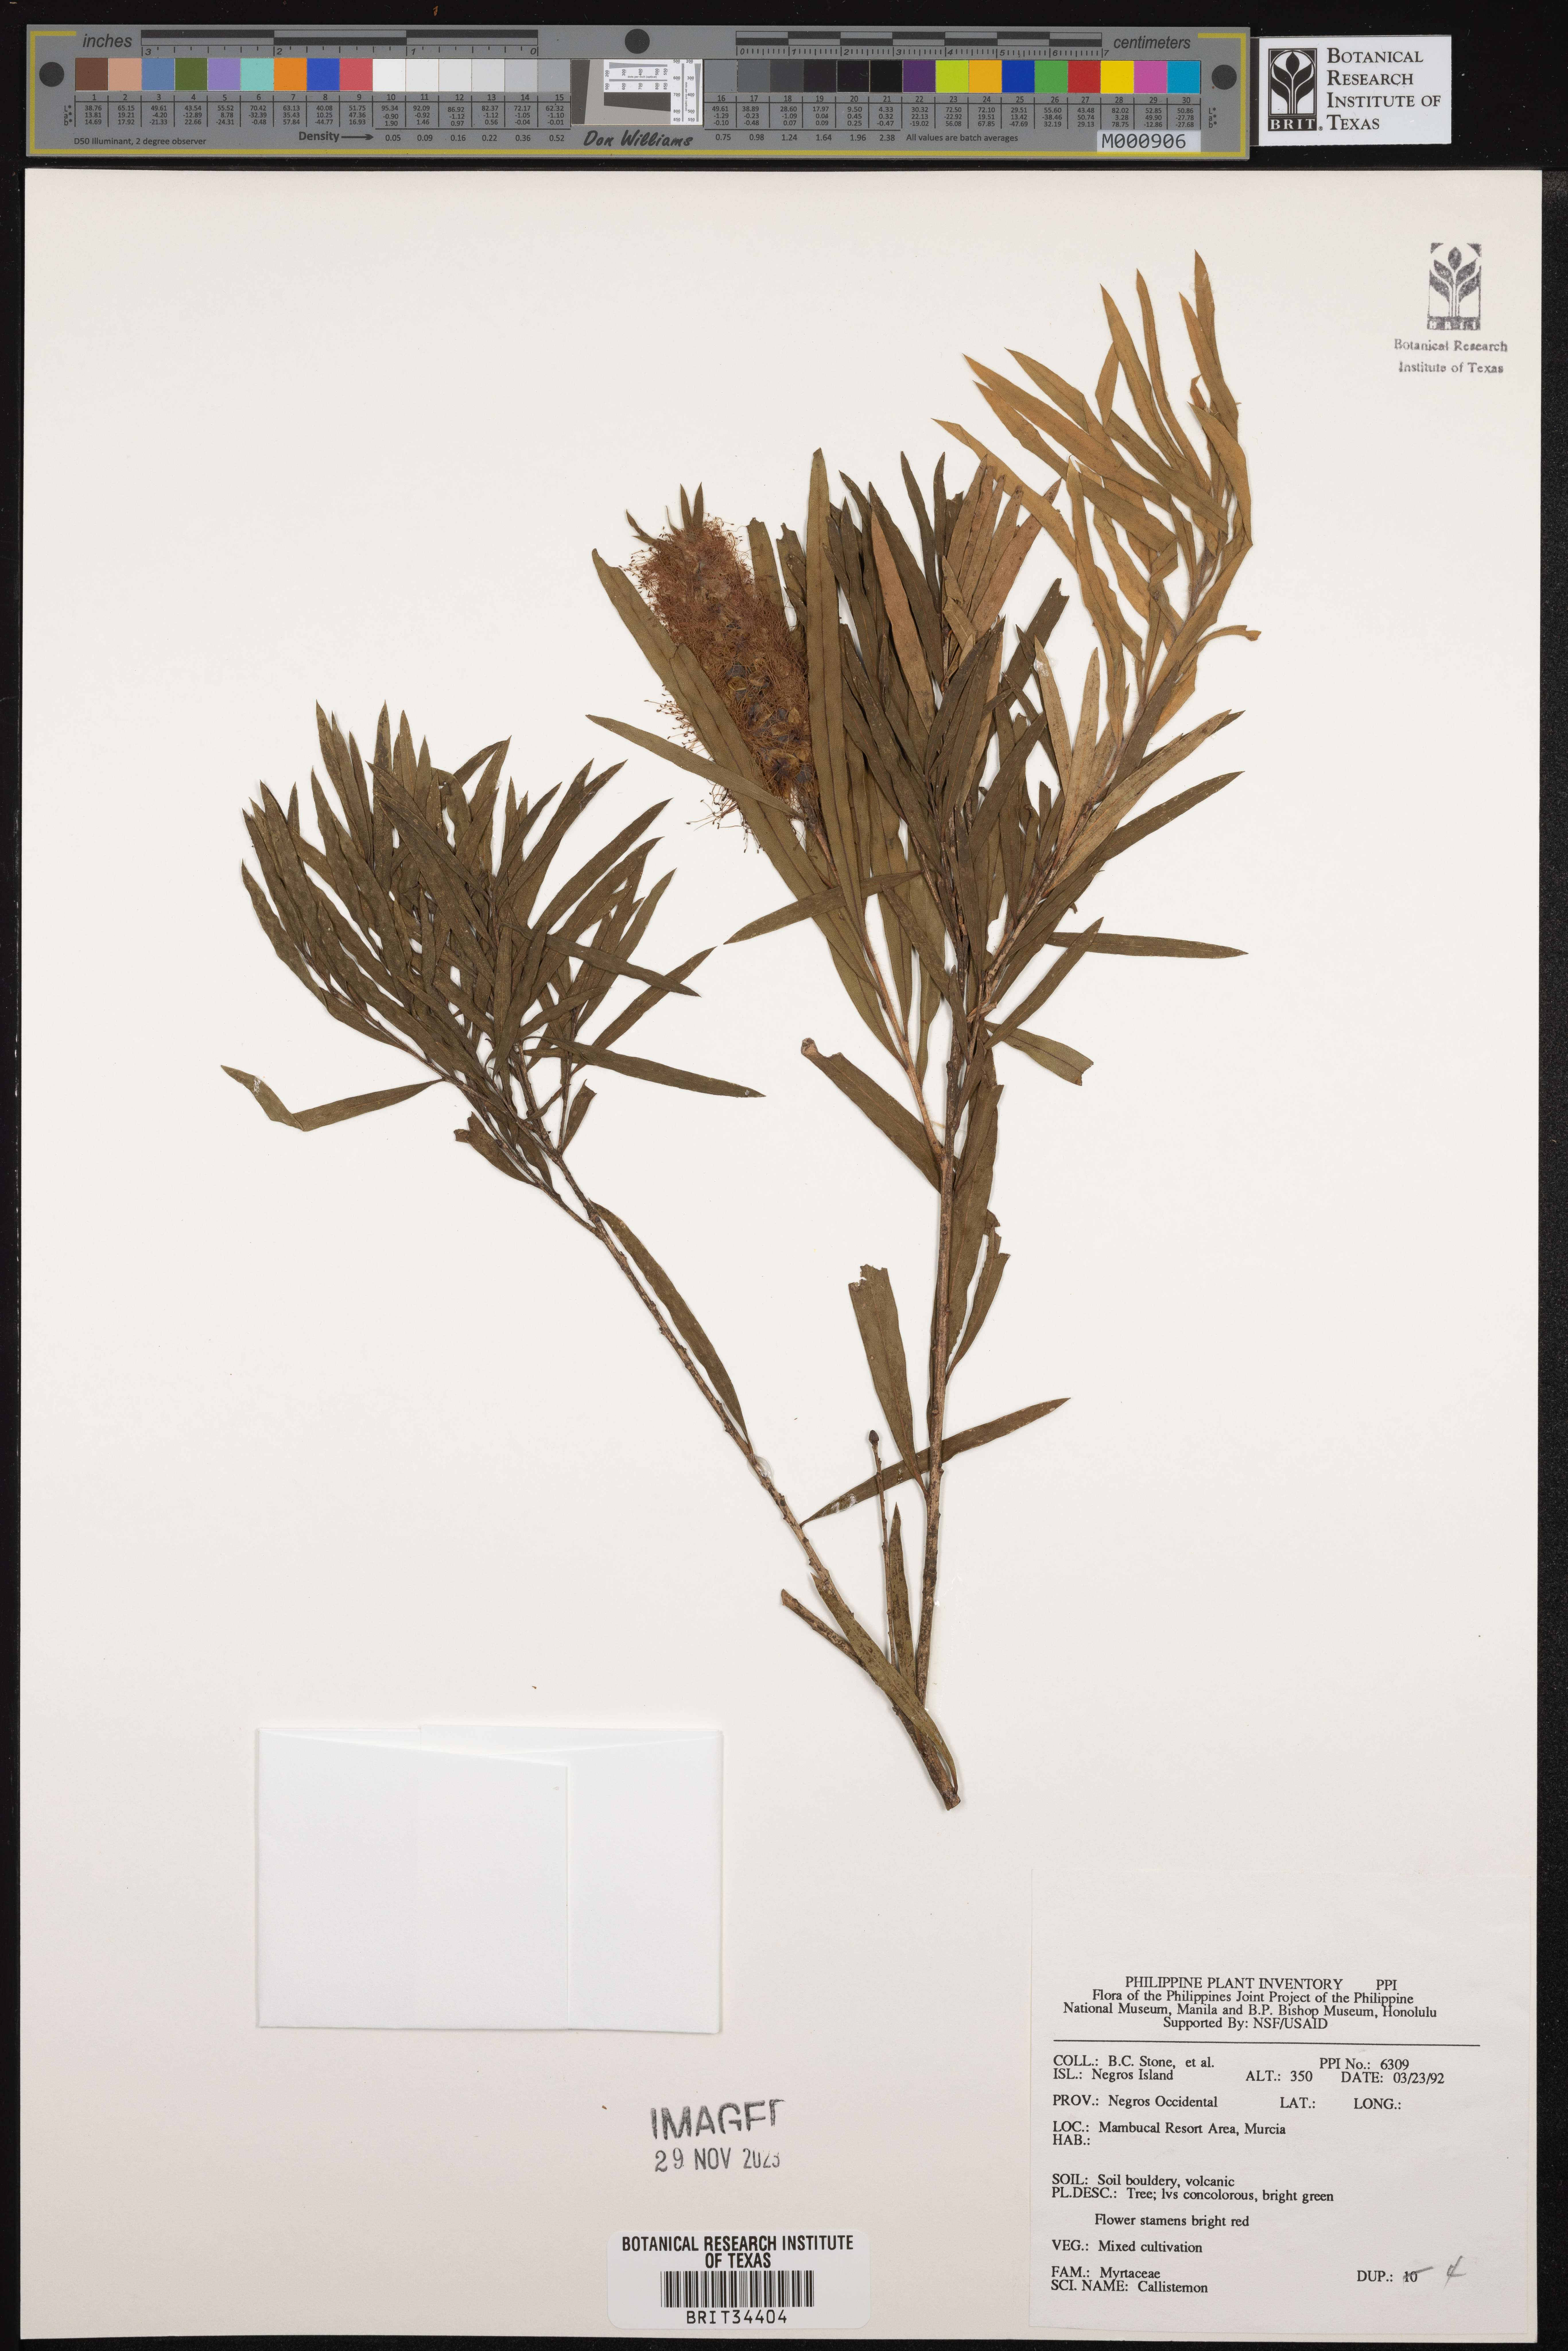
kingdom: Plantae
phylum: Tracheophyta
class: Magnoliopsida
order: Myrtales
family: Myrtaceae
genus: Callistemon
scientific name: Callistemon
